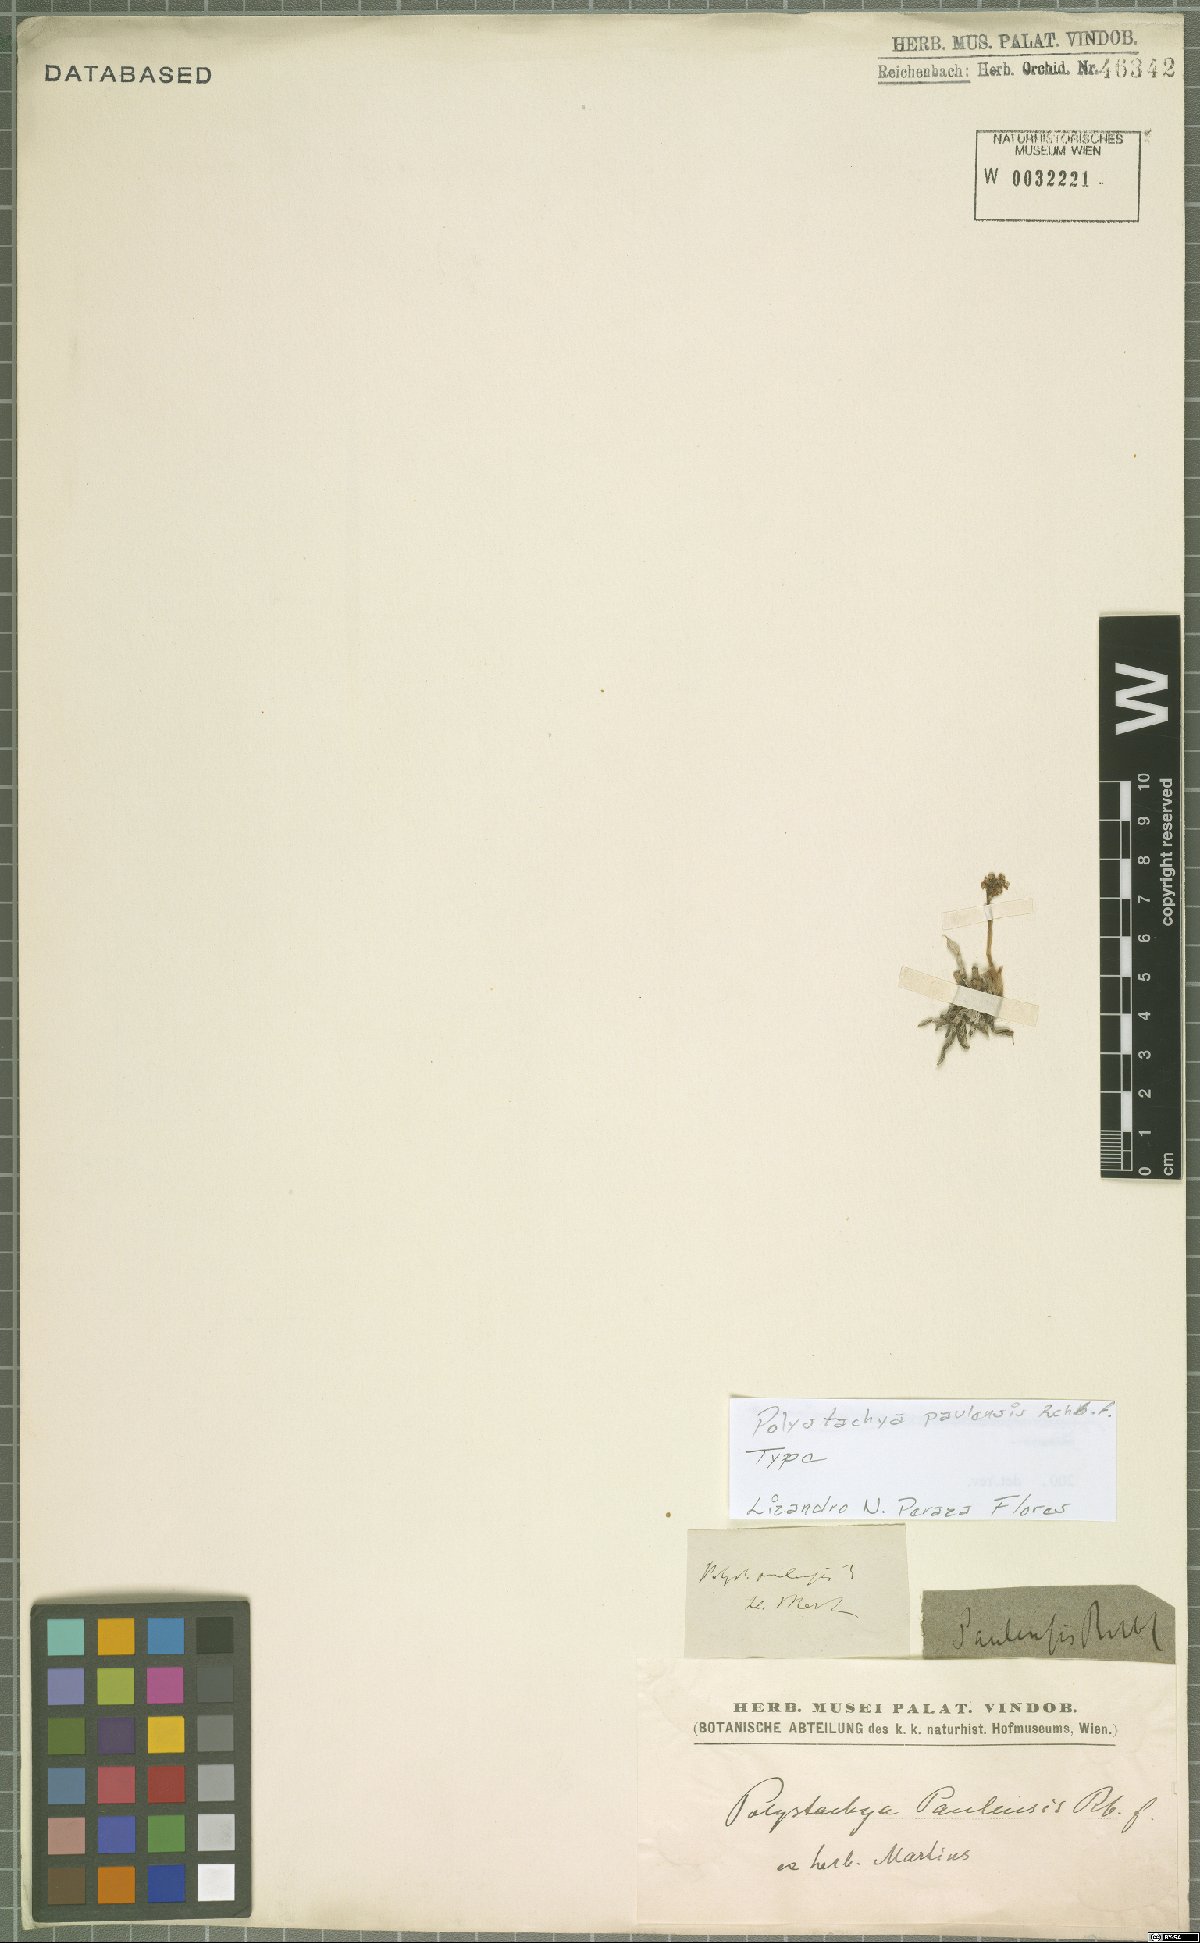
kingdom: Plantae
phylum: Tracheophyta
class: Liliopsida
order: Asparagales
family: Orchidaceae
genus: Polystachya
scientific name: Polystachya paulensis
